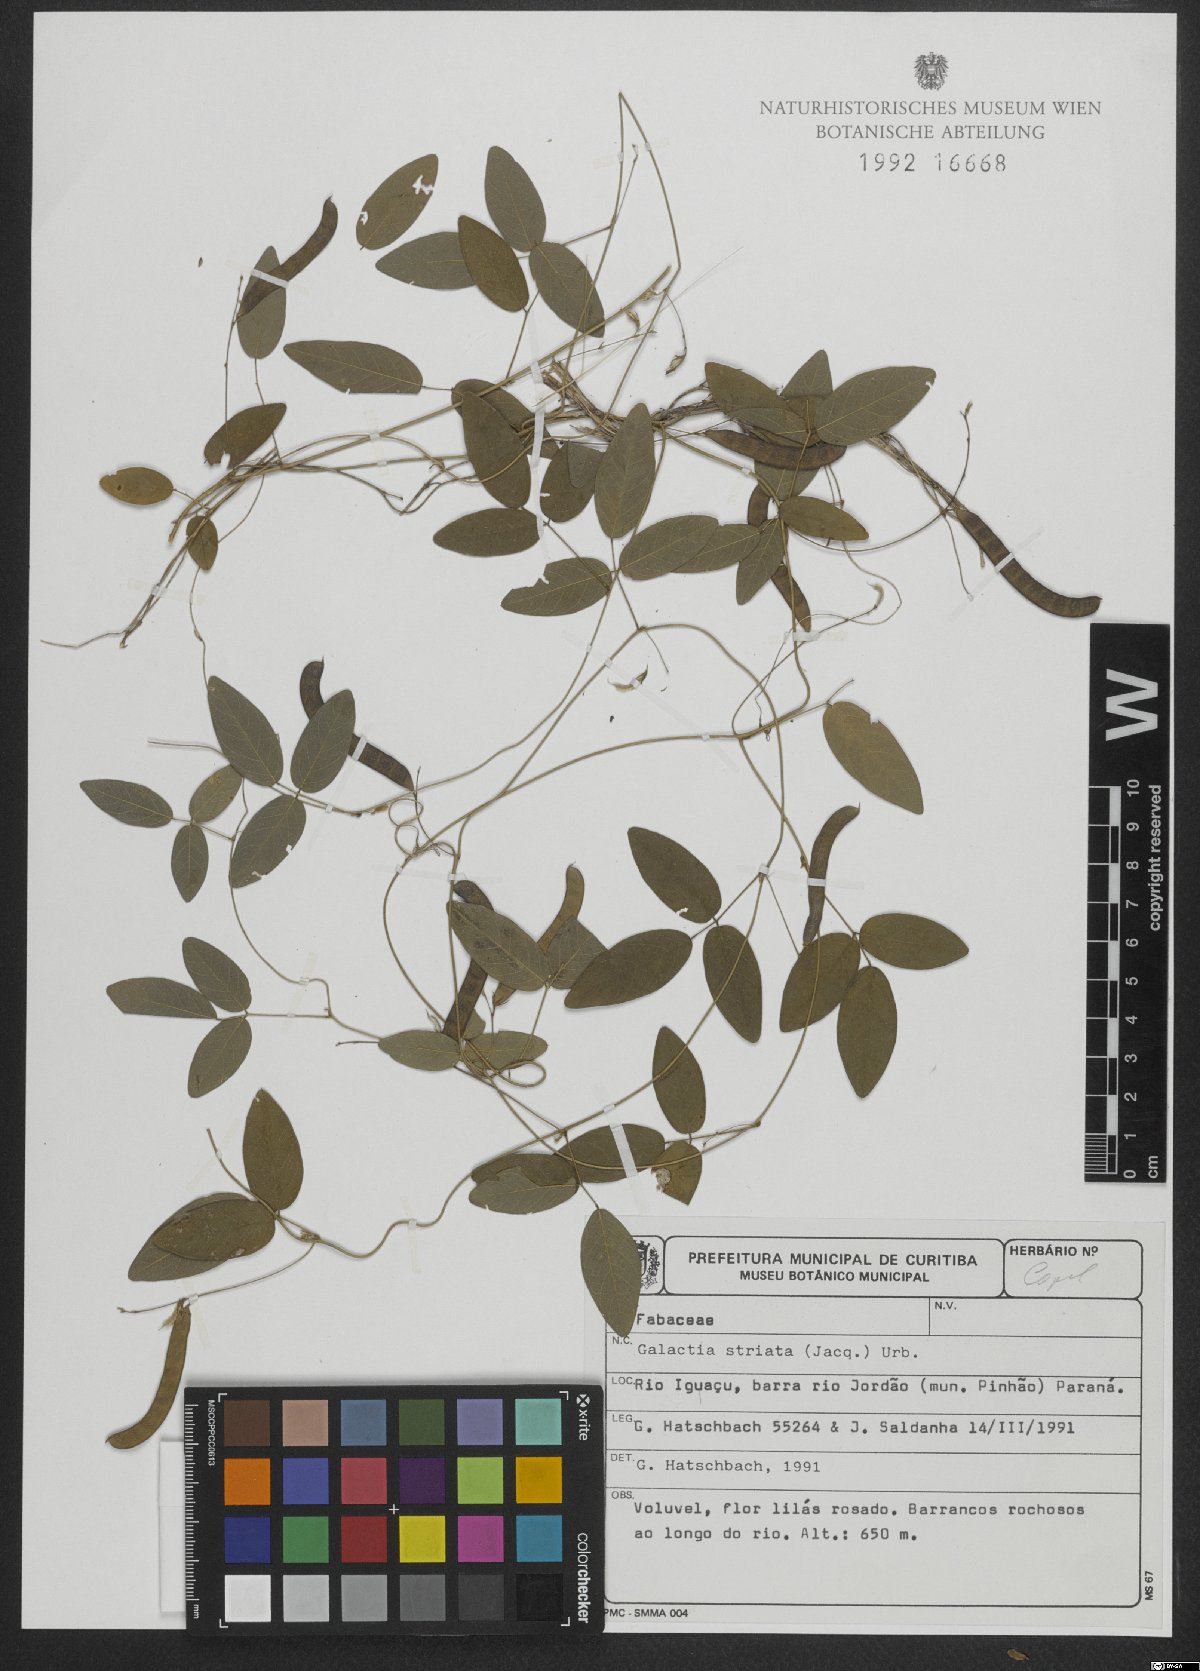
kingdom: Plantae
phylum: Tracheophyta
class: Magnoliopsida
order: Fabales
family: Fabaceae
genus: Galactia
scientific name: Galactia striata
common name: Florida hammock milkpea
